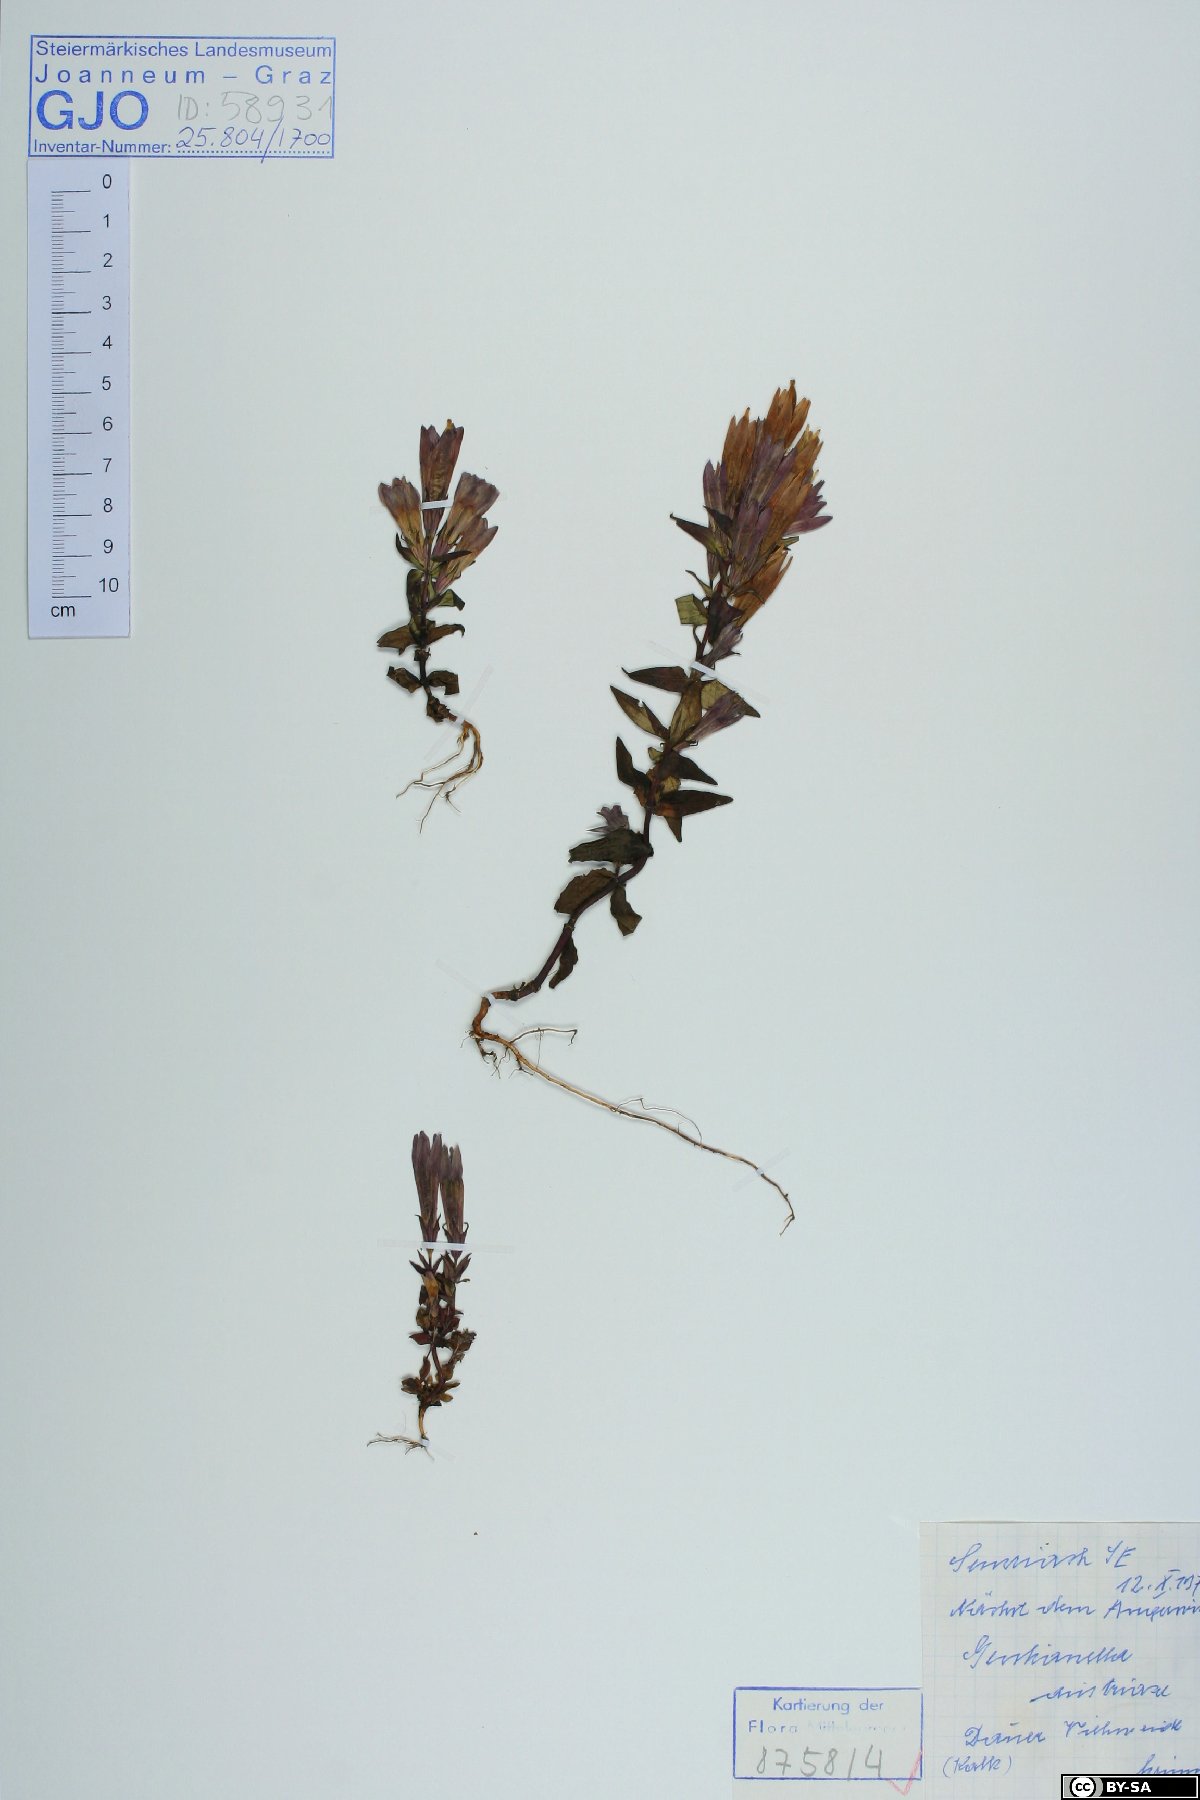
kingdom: Plantae
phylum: Tracheophyta
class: Magnoliopsida
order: Gentianales
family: Gentianaceae
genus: Gentianella
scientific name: Gentianella austriaca
